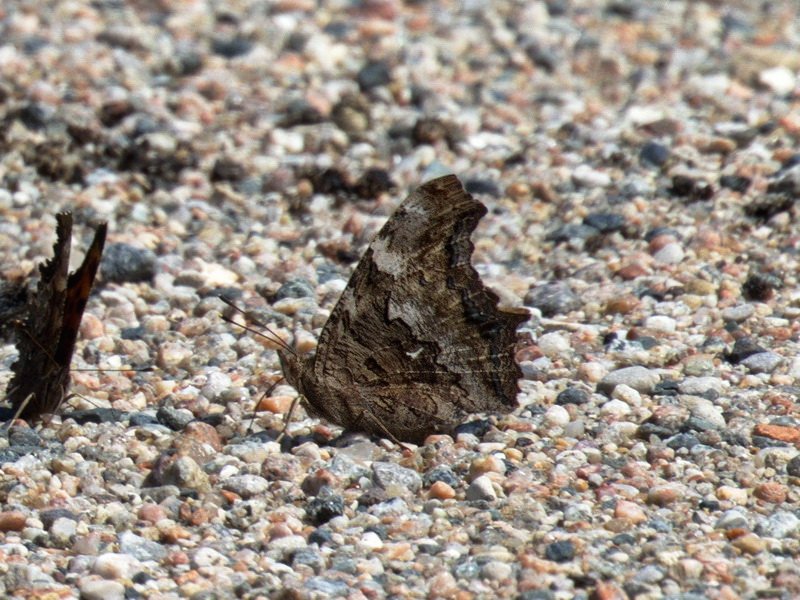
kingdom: Animalia
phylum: Arthropoda
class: Insecta
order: Lepidoptera
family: Nymphalidae
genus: Polygonia
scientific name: Polygonia vaualbum
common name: Compton Tortoiseshell
